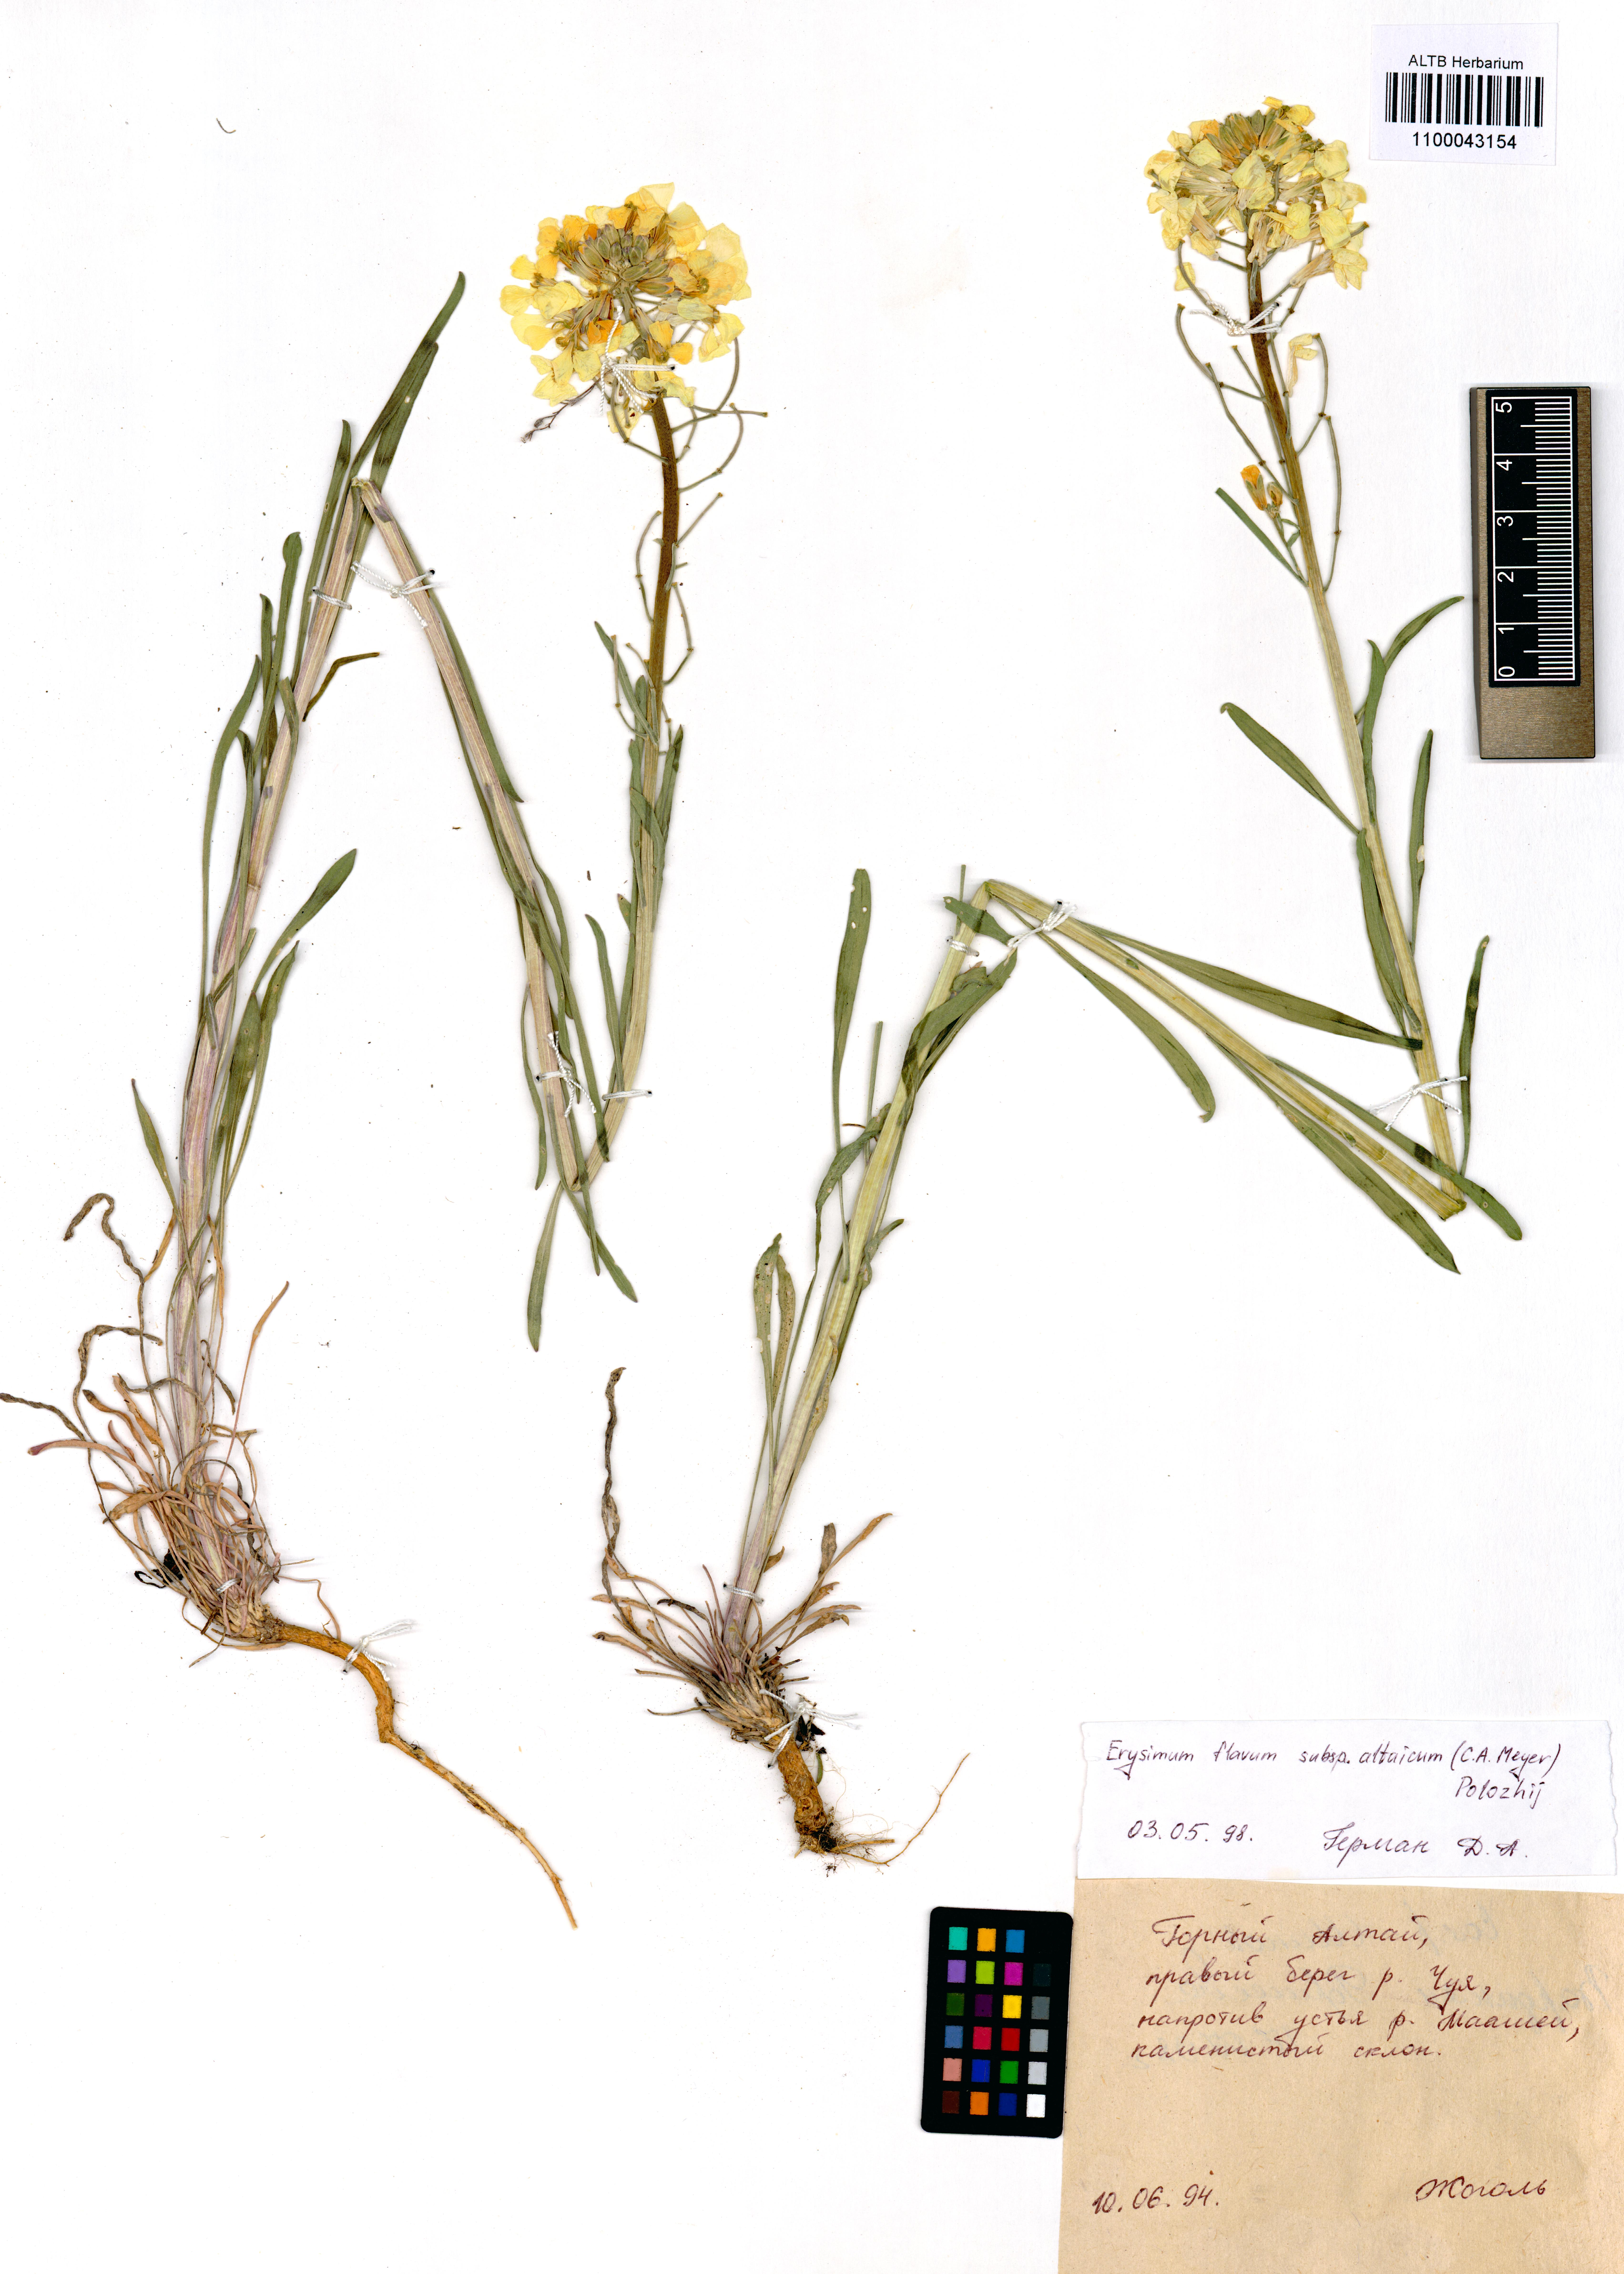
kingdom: Plantae
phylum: Tracheophyta
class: Magnoliopsida
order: Brassicales
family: Brassicaceae
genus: Erysimum
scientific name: Erysimum flavum
